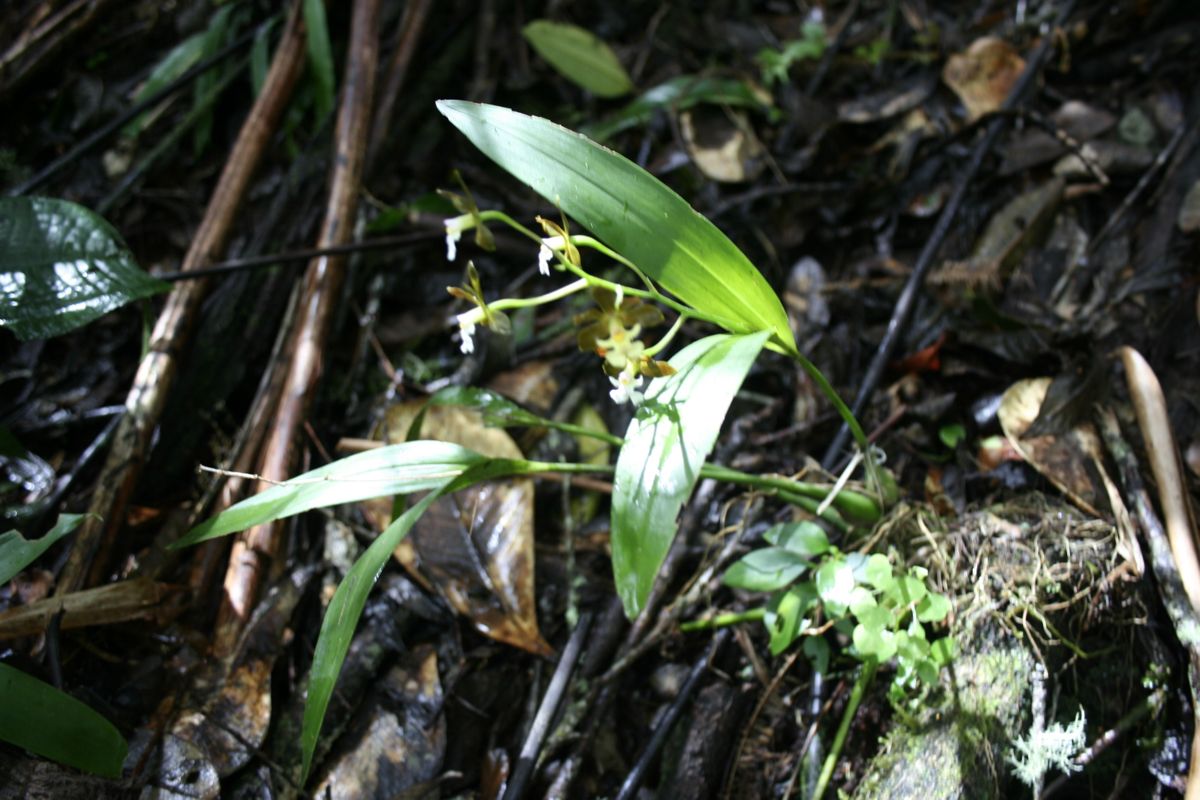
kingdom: Plantae
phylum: Tracheophyta
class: Liliopsida
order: Asparagales
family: Orchidaceae
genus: Epidendrum
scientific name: Epidendrum
